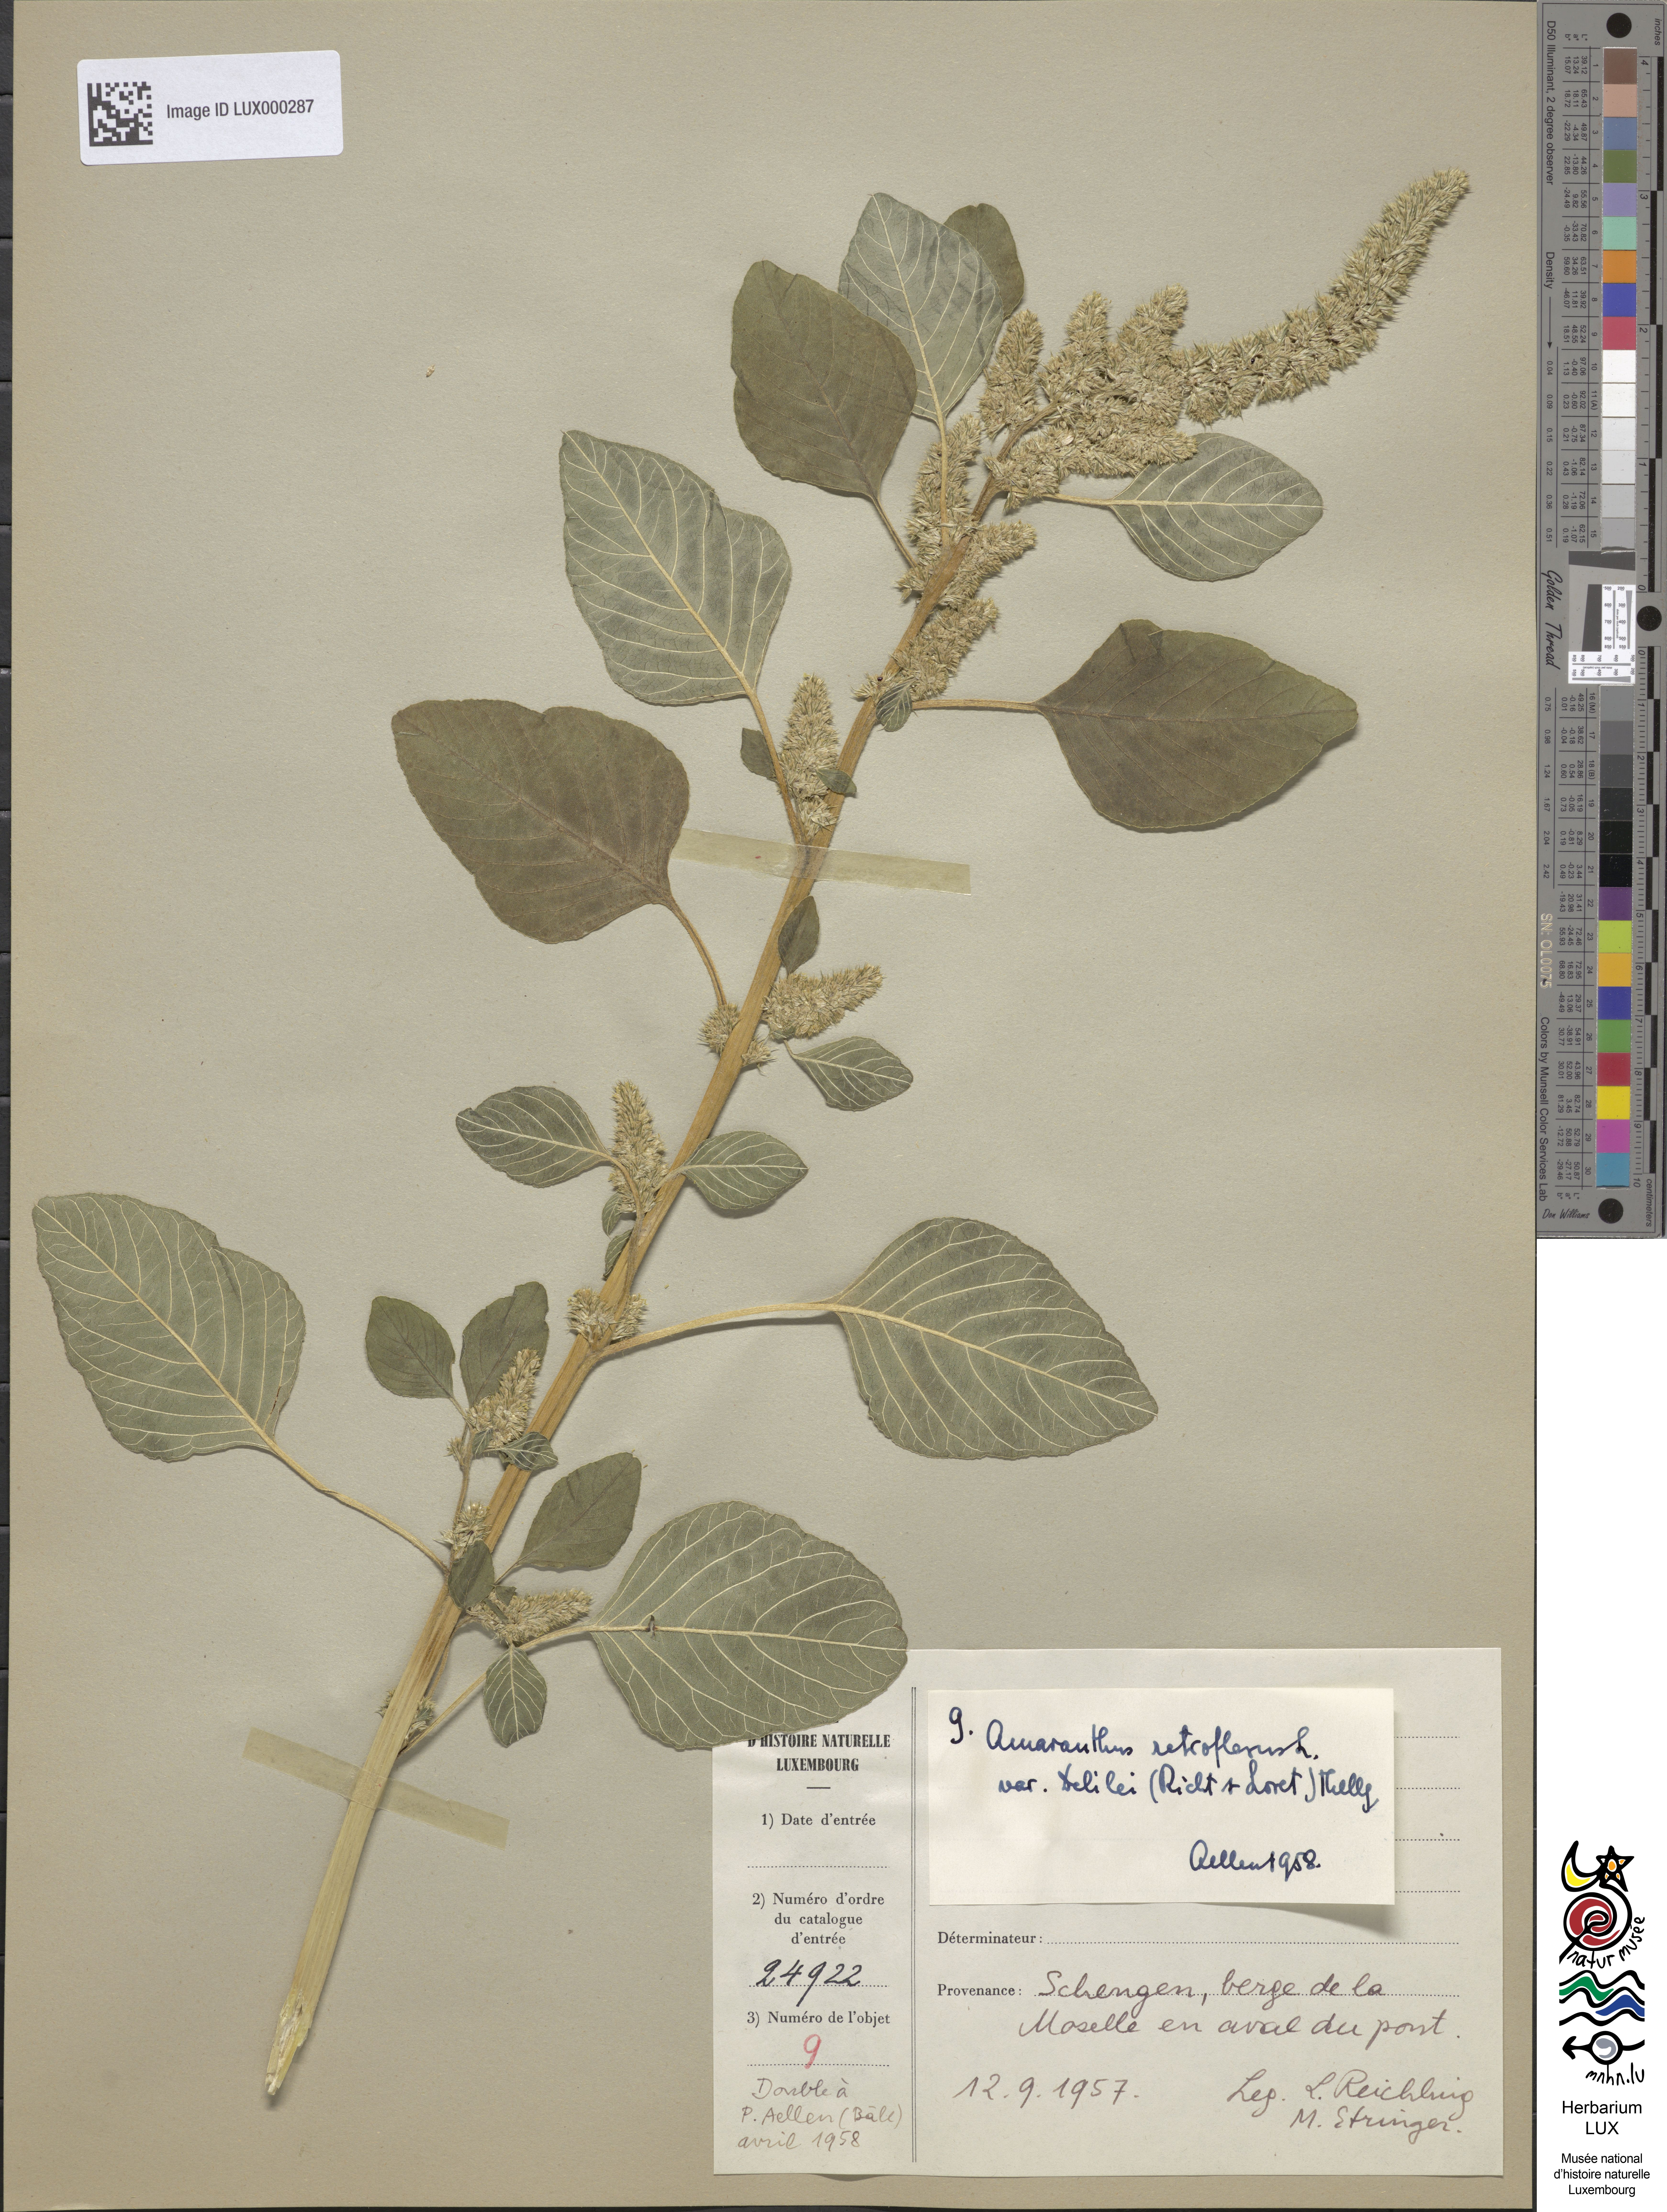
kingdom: Plantae
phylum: Tracheophyta
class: Magnoliopsida
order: Caryophyllales
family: Amaranthaceae
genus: Amaranthus
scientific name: Amaranthus retroflexus
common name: Redroot amaranth
